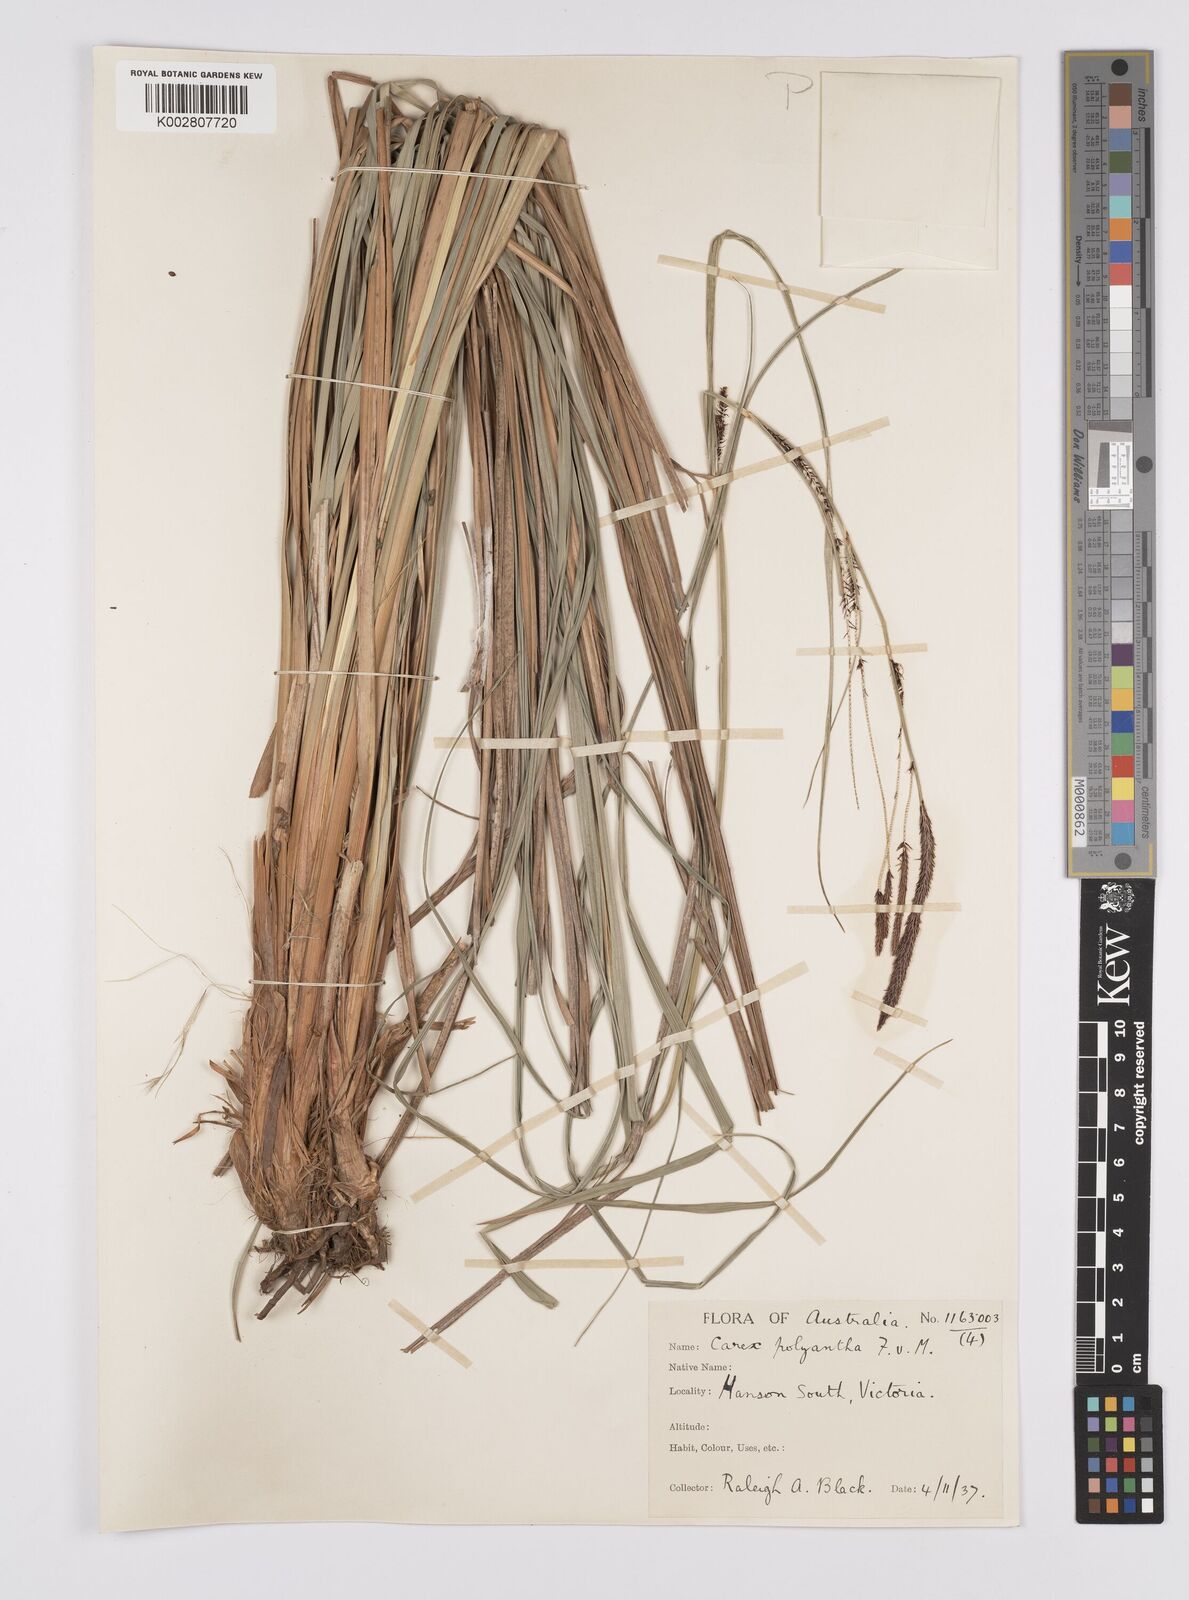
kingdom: Plantae
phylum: Tracheophyta
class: Liliopsida
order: Poales
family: Cyperaceae
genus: Carex
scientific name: Carex polyantha
